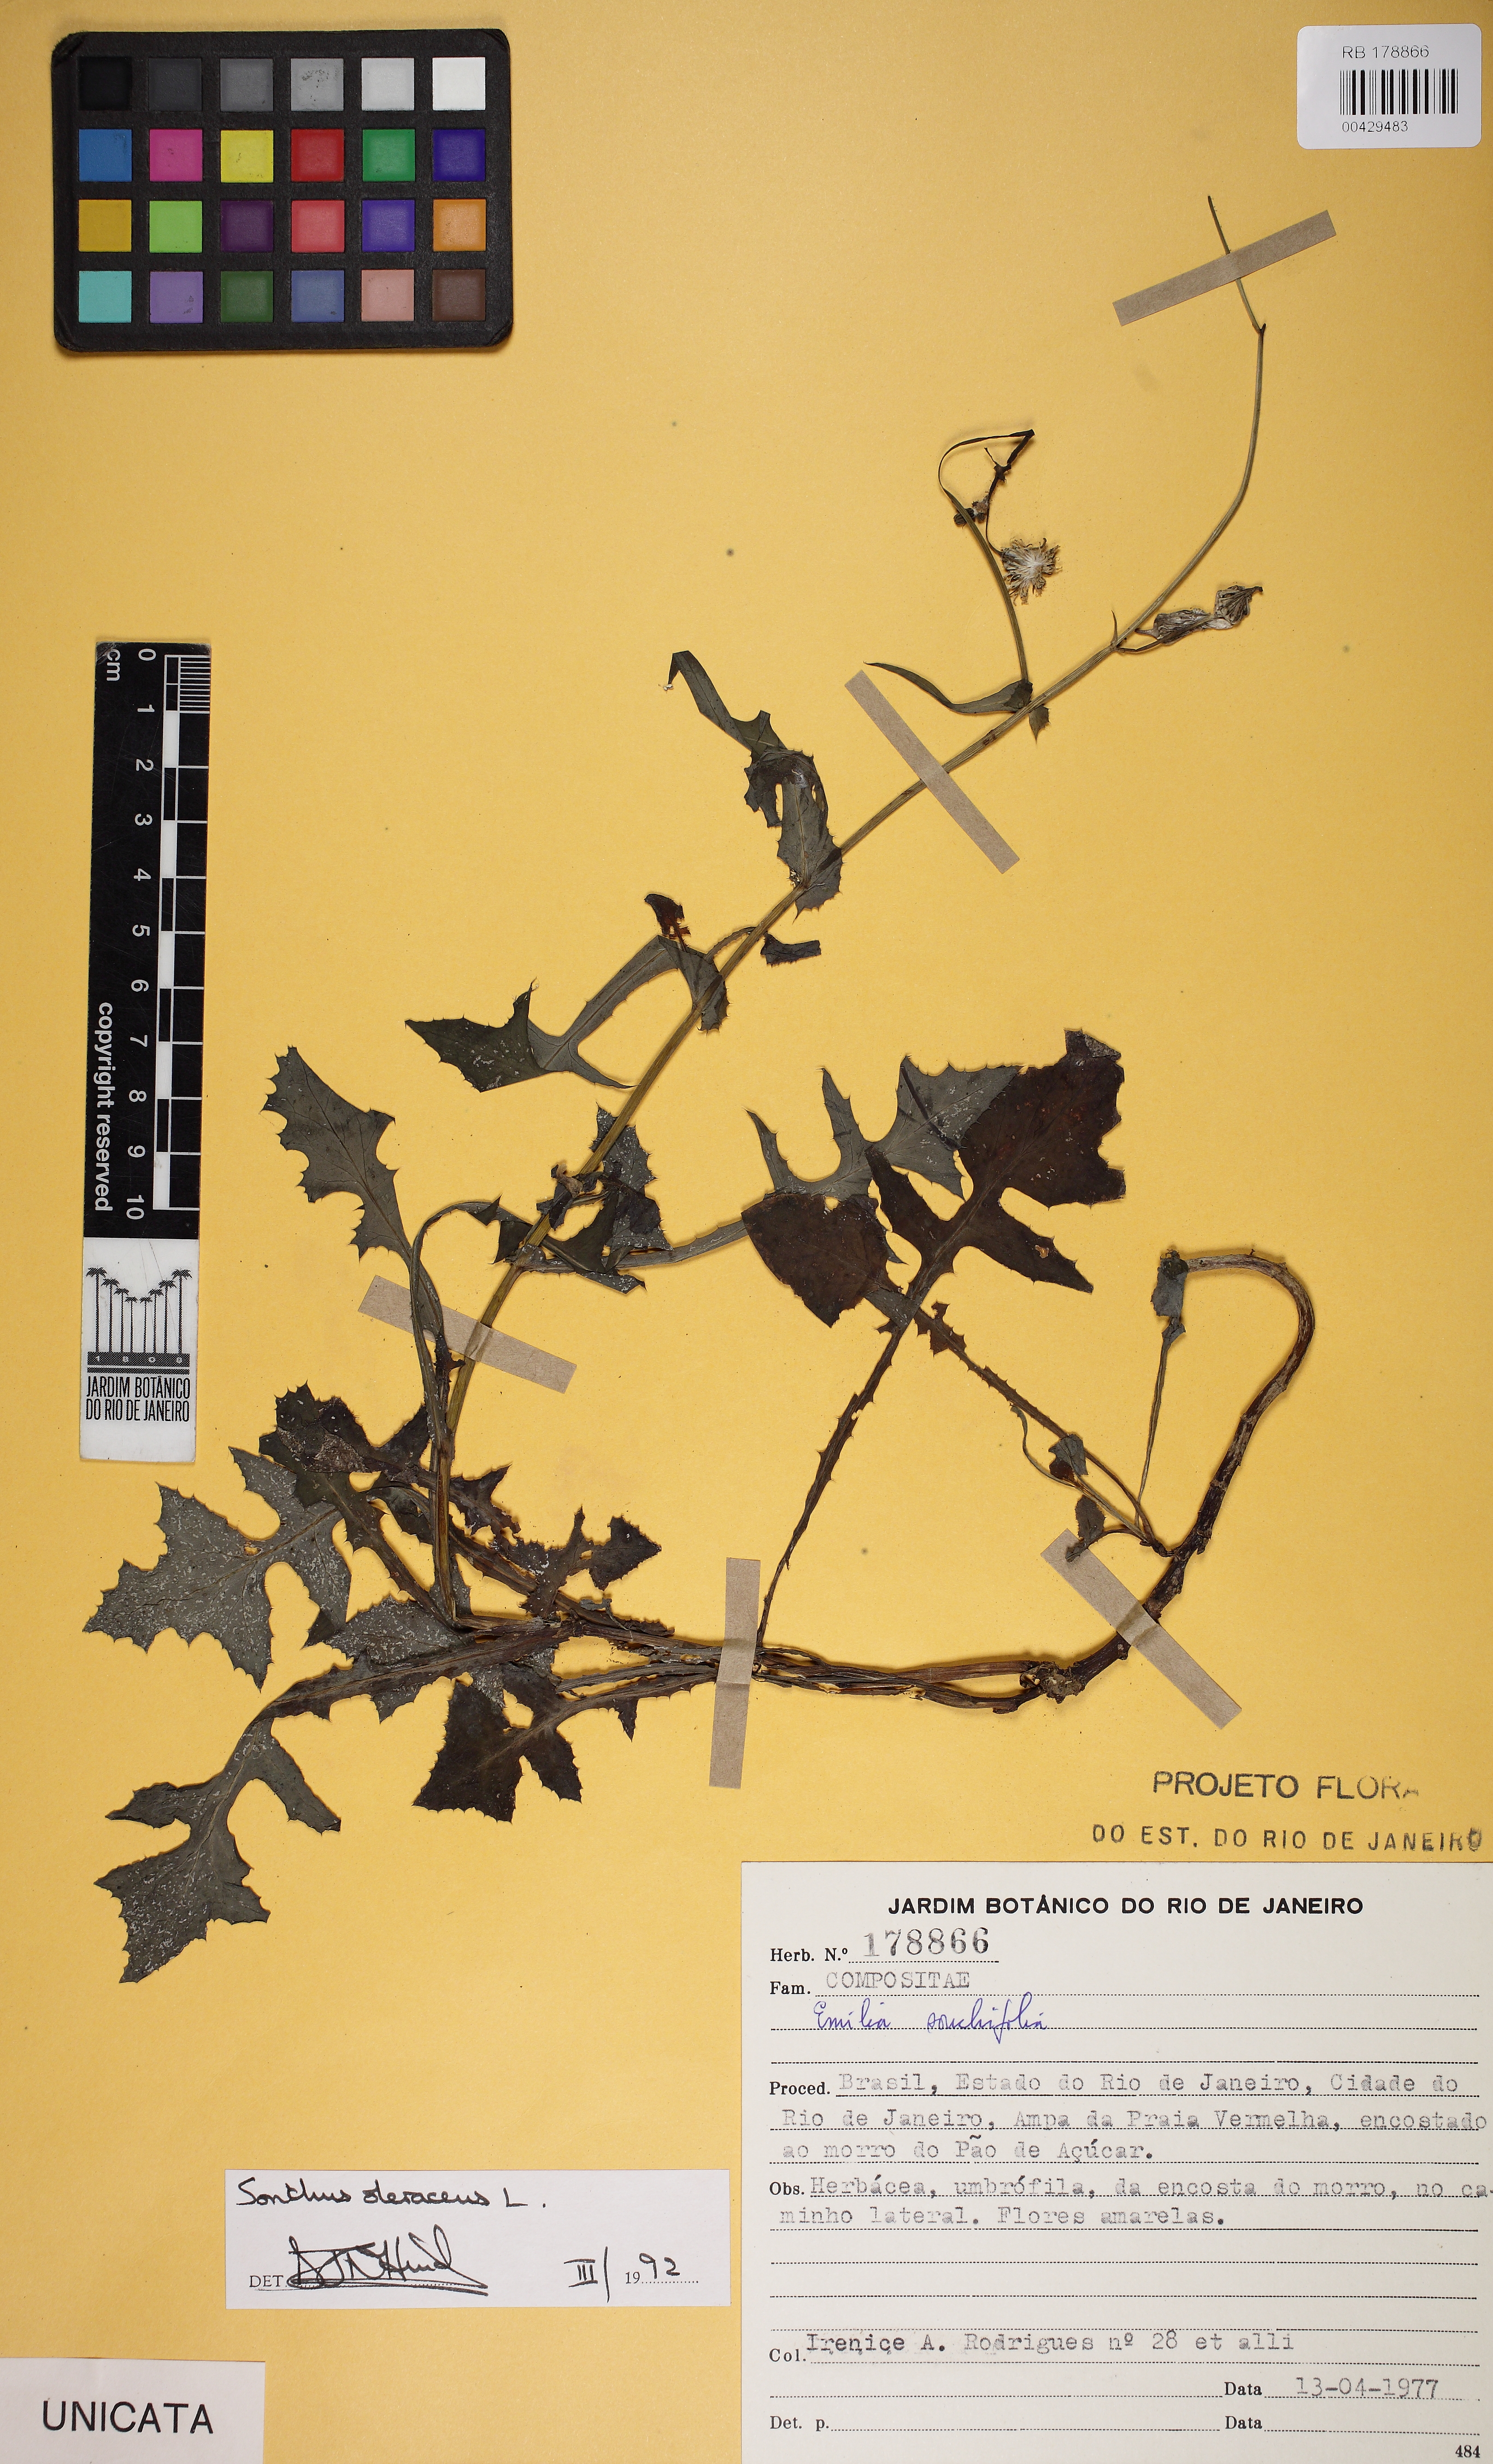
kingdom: Plantae
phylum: Tracheophyta
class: Magnoliopsida
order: Asterales
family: Asteraceae
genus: Sonchus
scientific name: Sonchus oleraceus
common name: Common sowthistle
